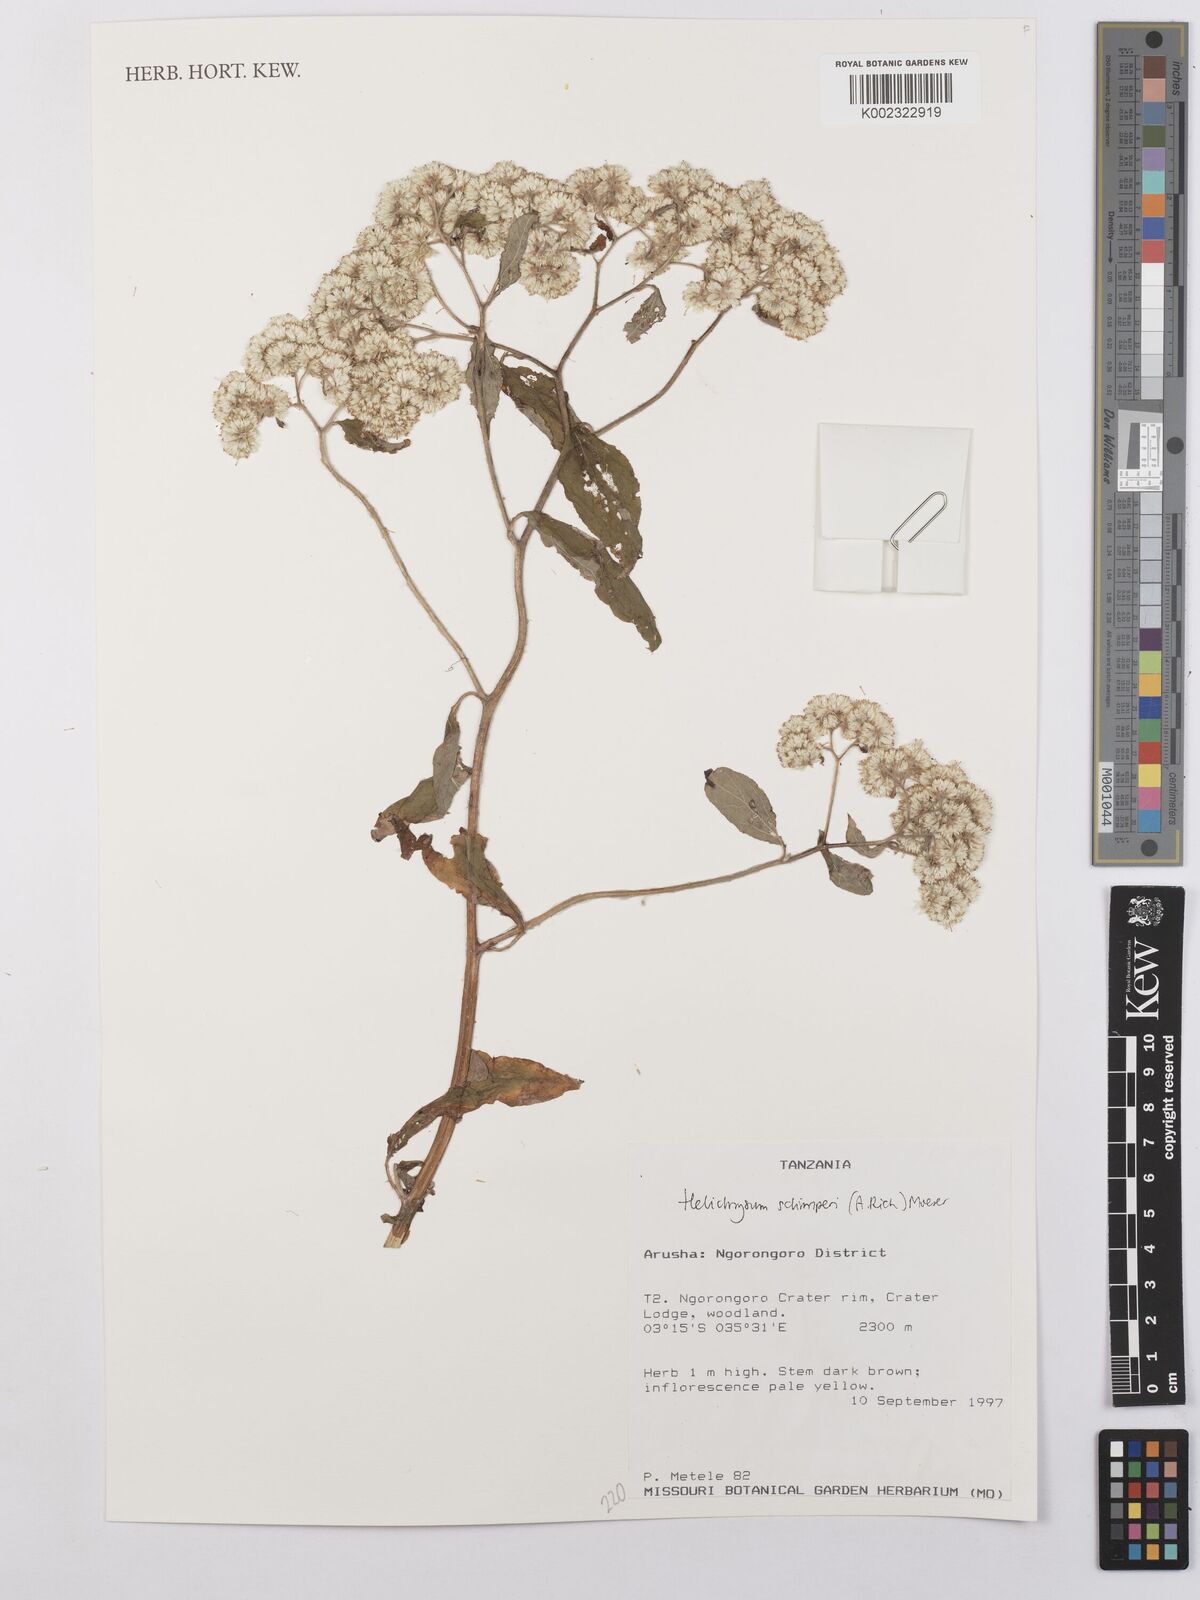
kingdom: Plantae
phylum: Tracheophyta
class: Magnoliopsida
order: Asterales
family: Asteraceae
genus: Helichrysum
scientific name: Helichrysum schimperi
